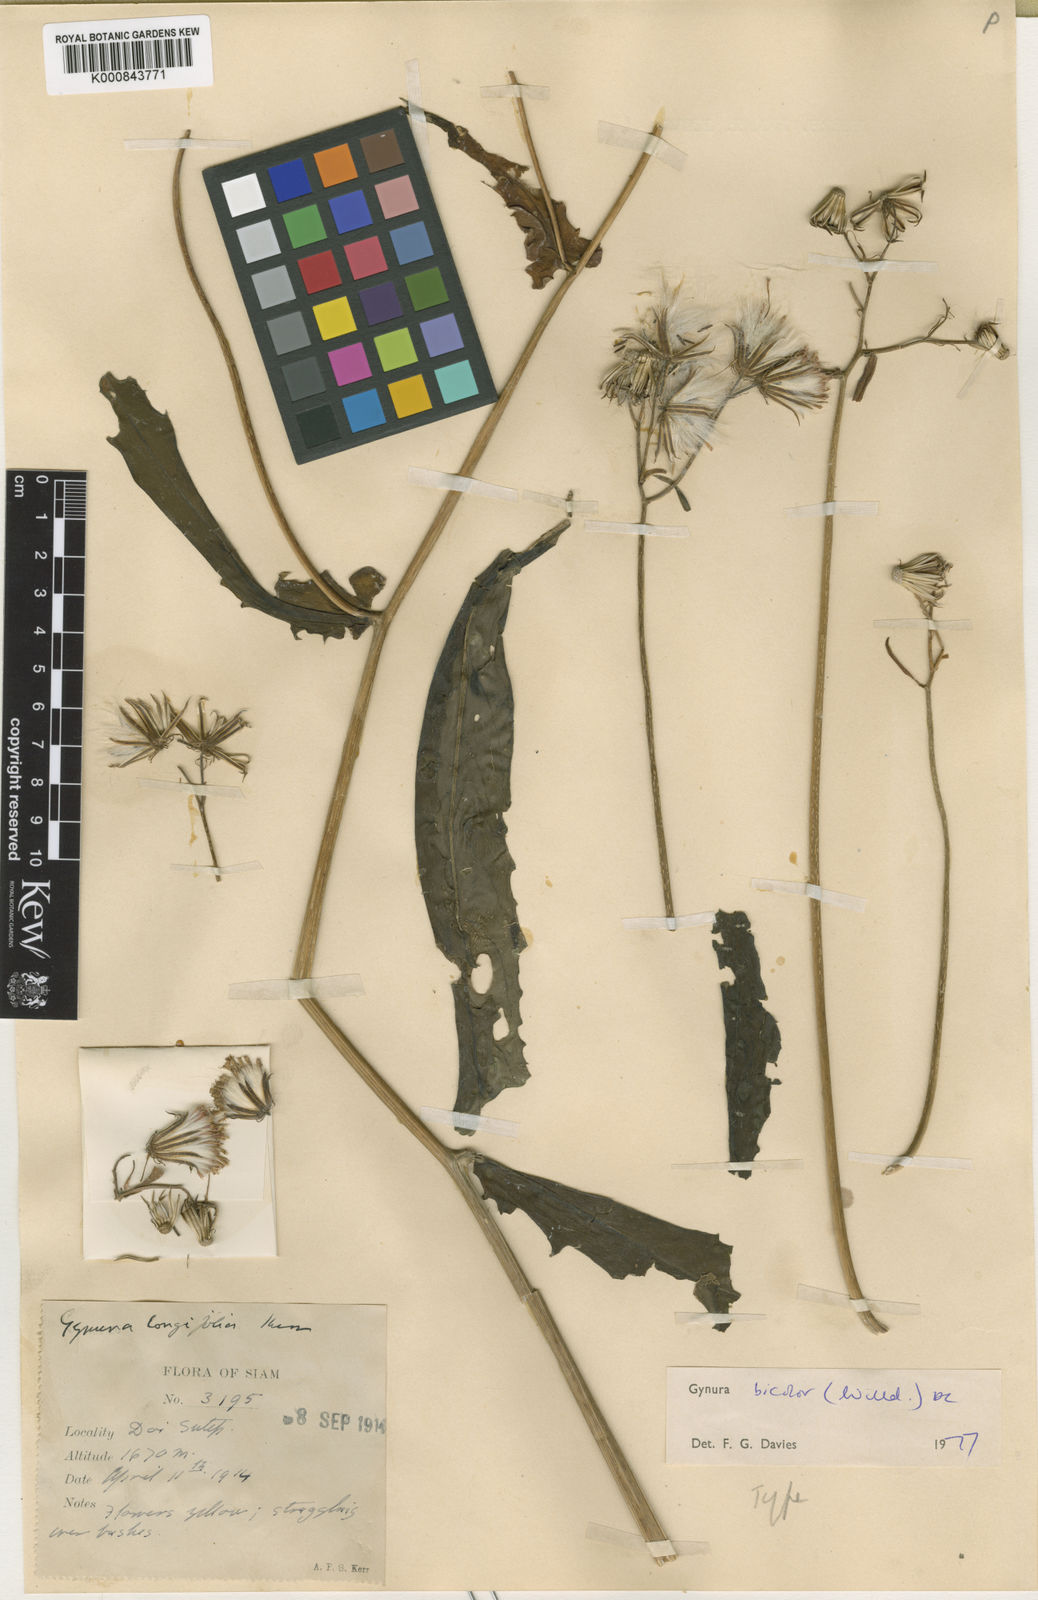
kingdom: Plantae
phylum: Tracheophyta
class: Magnoliopsida
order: Asterales
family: Asteraceae
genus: Gynura
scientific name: Gynura bicolor
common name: Red-vegetable
